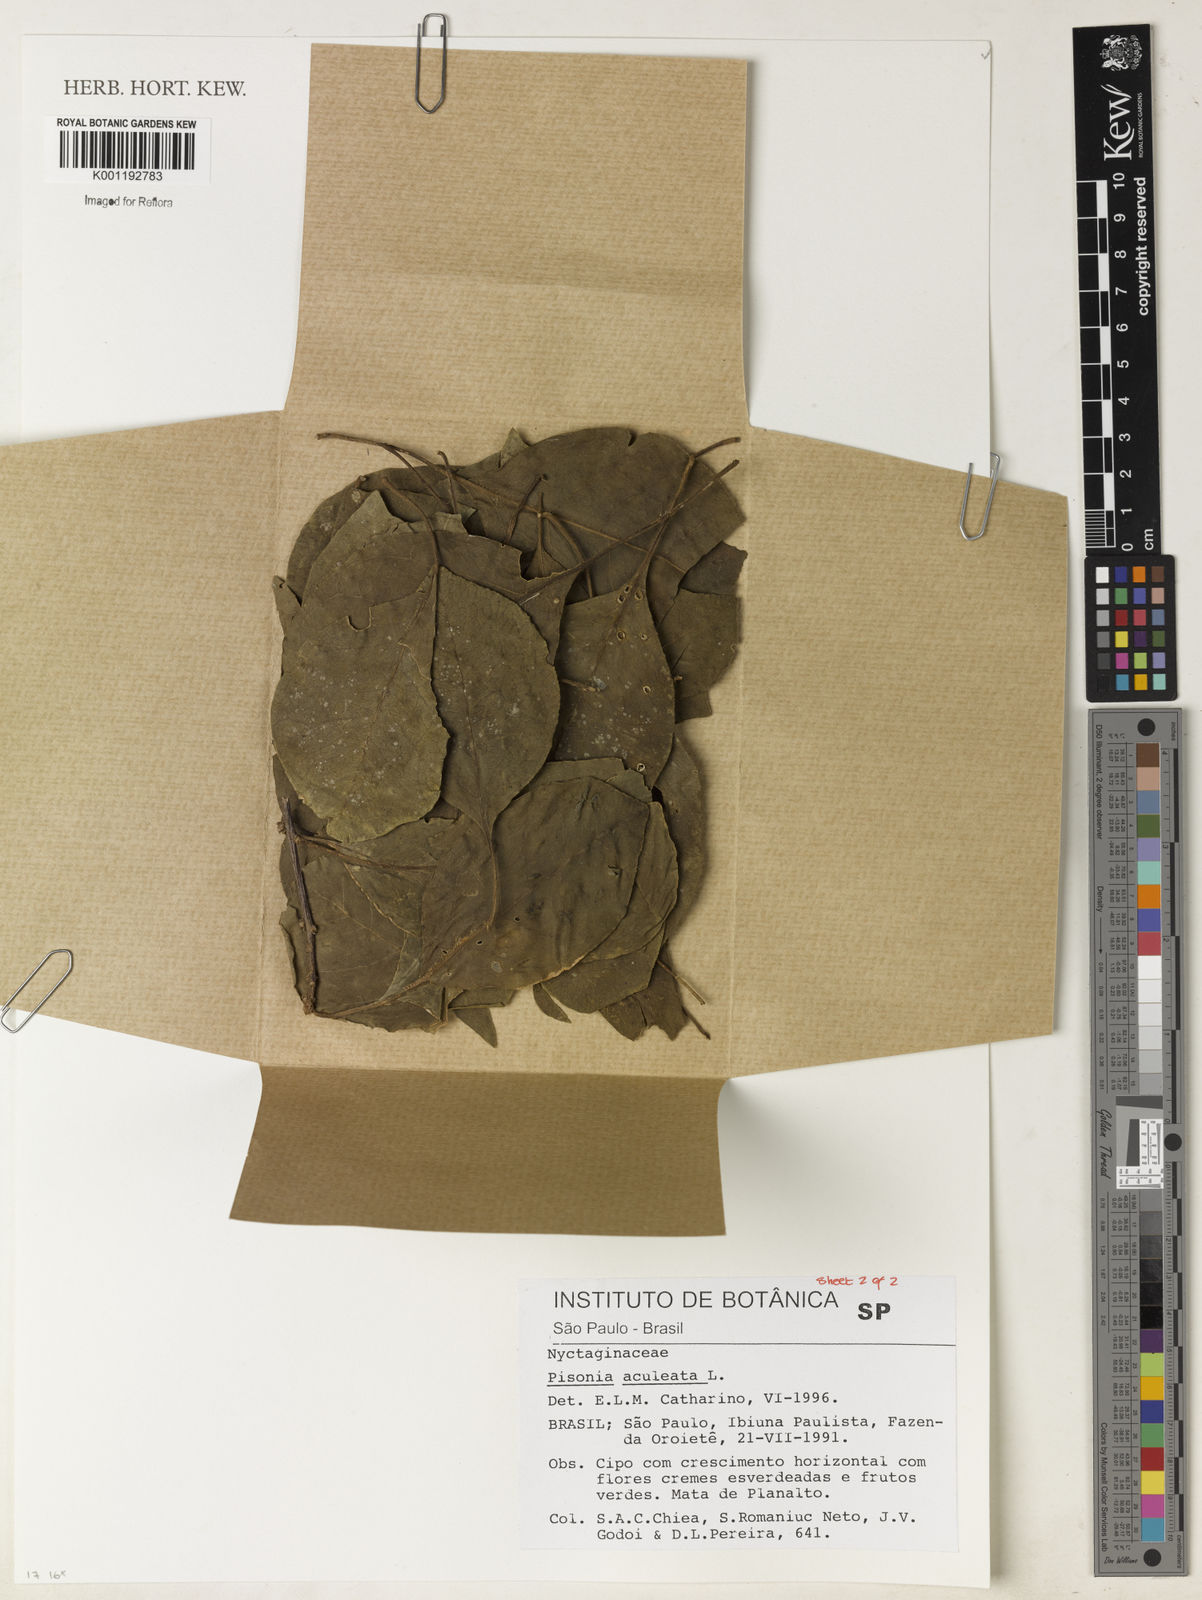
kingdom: Plantae
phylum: Tracheophyta
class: Magnoliopsida
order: Caryophyllales
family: Nyctaginaceae
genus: Pisonia
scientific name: Pisonia aculeata
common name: Cockspur vine
